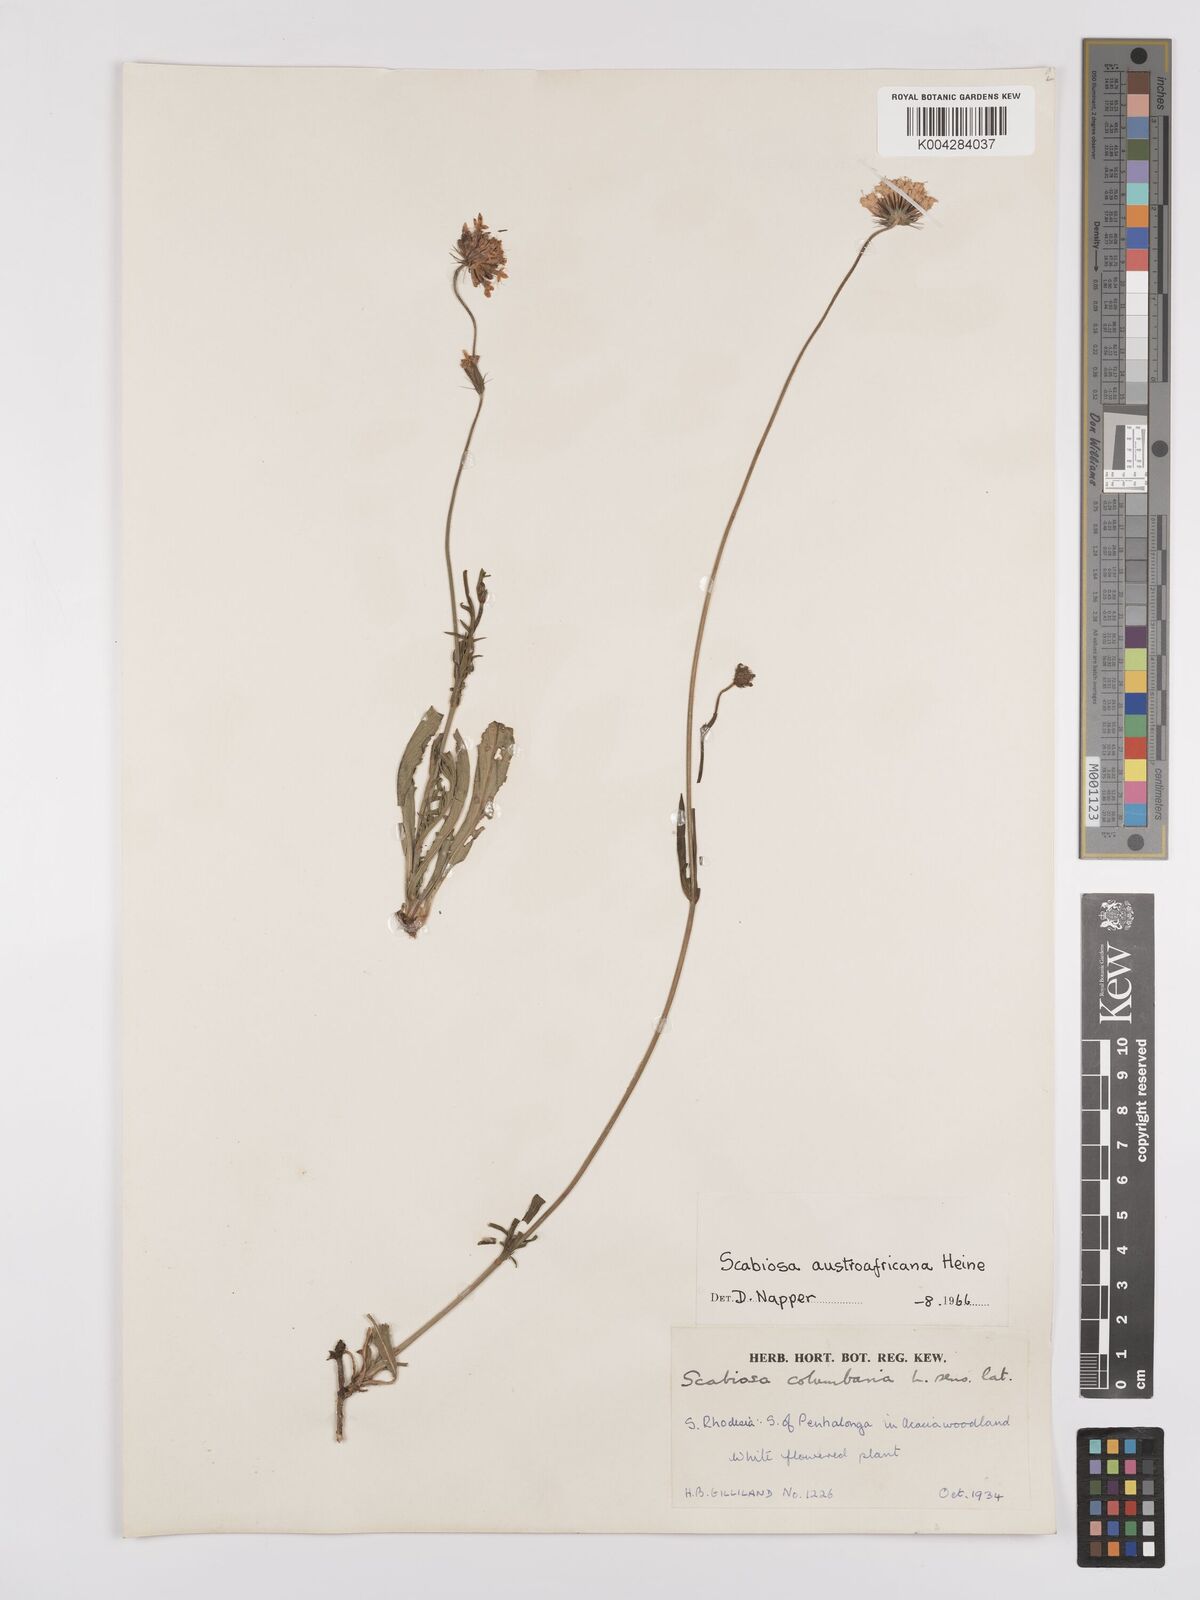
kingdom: Plantae
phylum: Tracheophyta
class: Magnoliopsida
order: Dipsacales
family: Caprifoliaceae
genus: Scabiosa
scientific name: Scabiosa austroafricana
